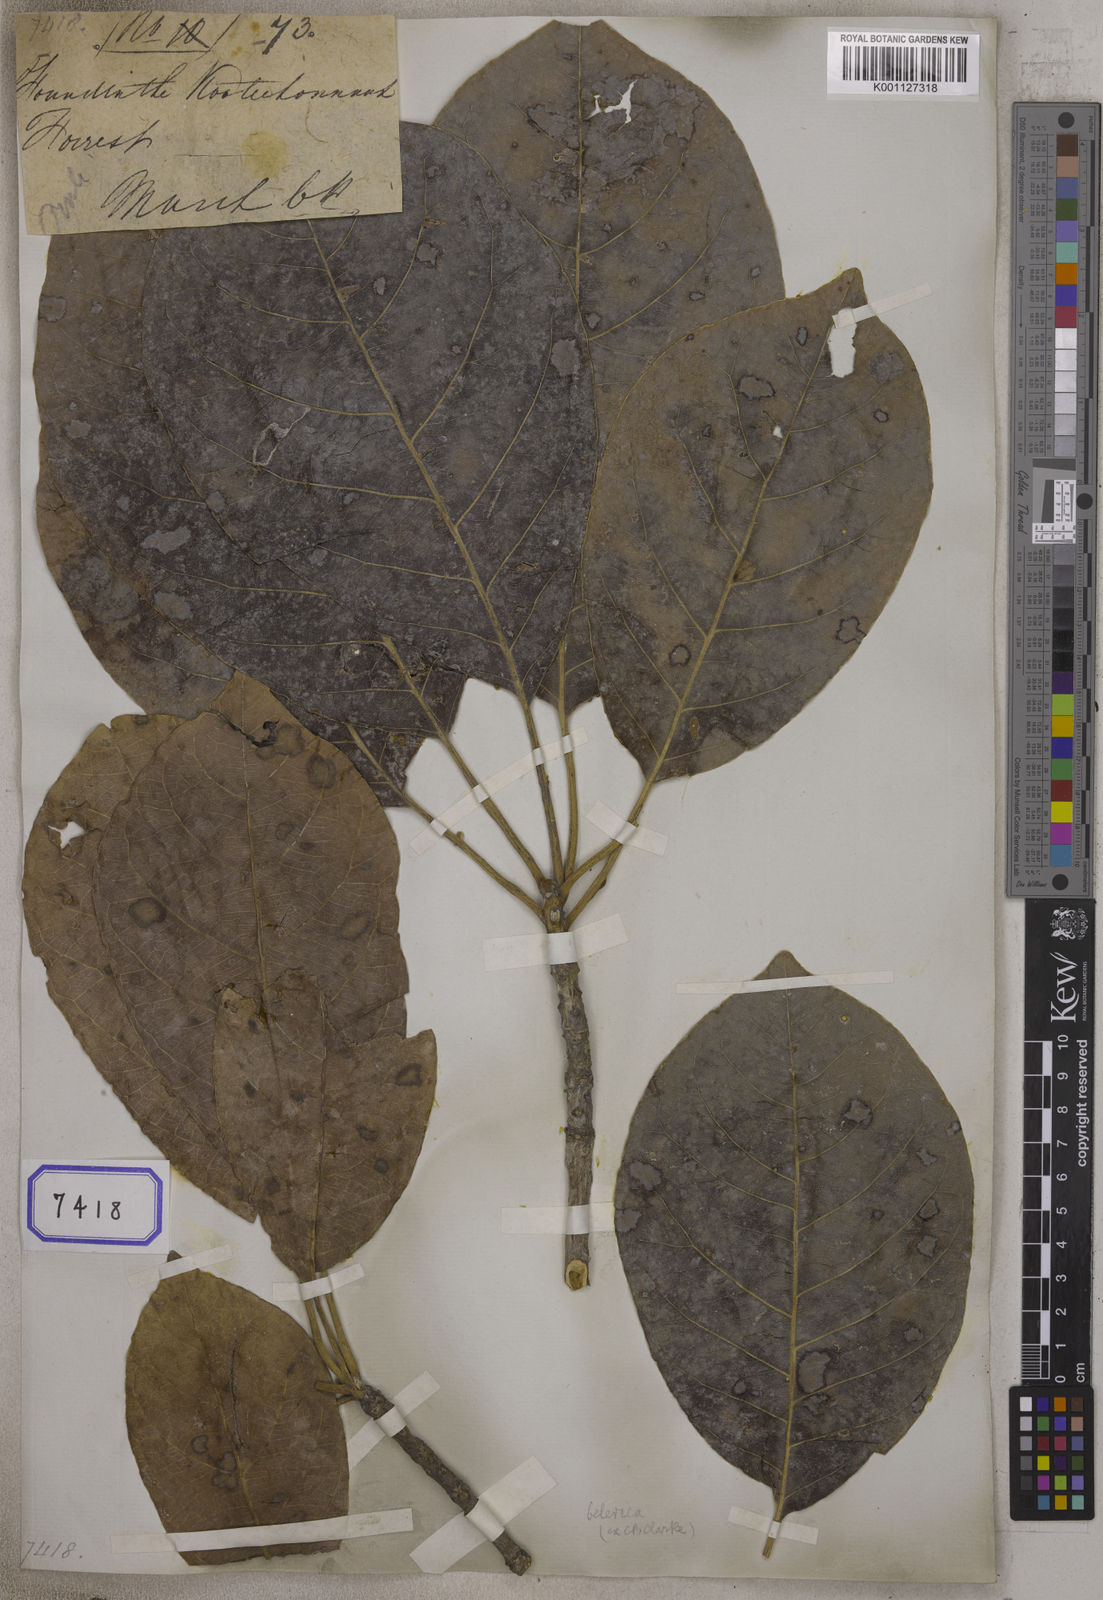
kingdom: Plantae
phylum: Tracheophyta
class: Magnoliopsida
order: Myrtales
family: Combretaceae
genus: Terminalia
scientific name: Terminalia
